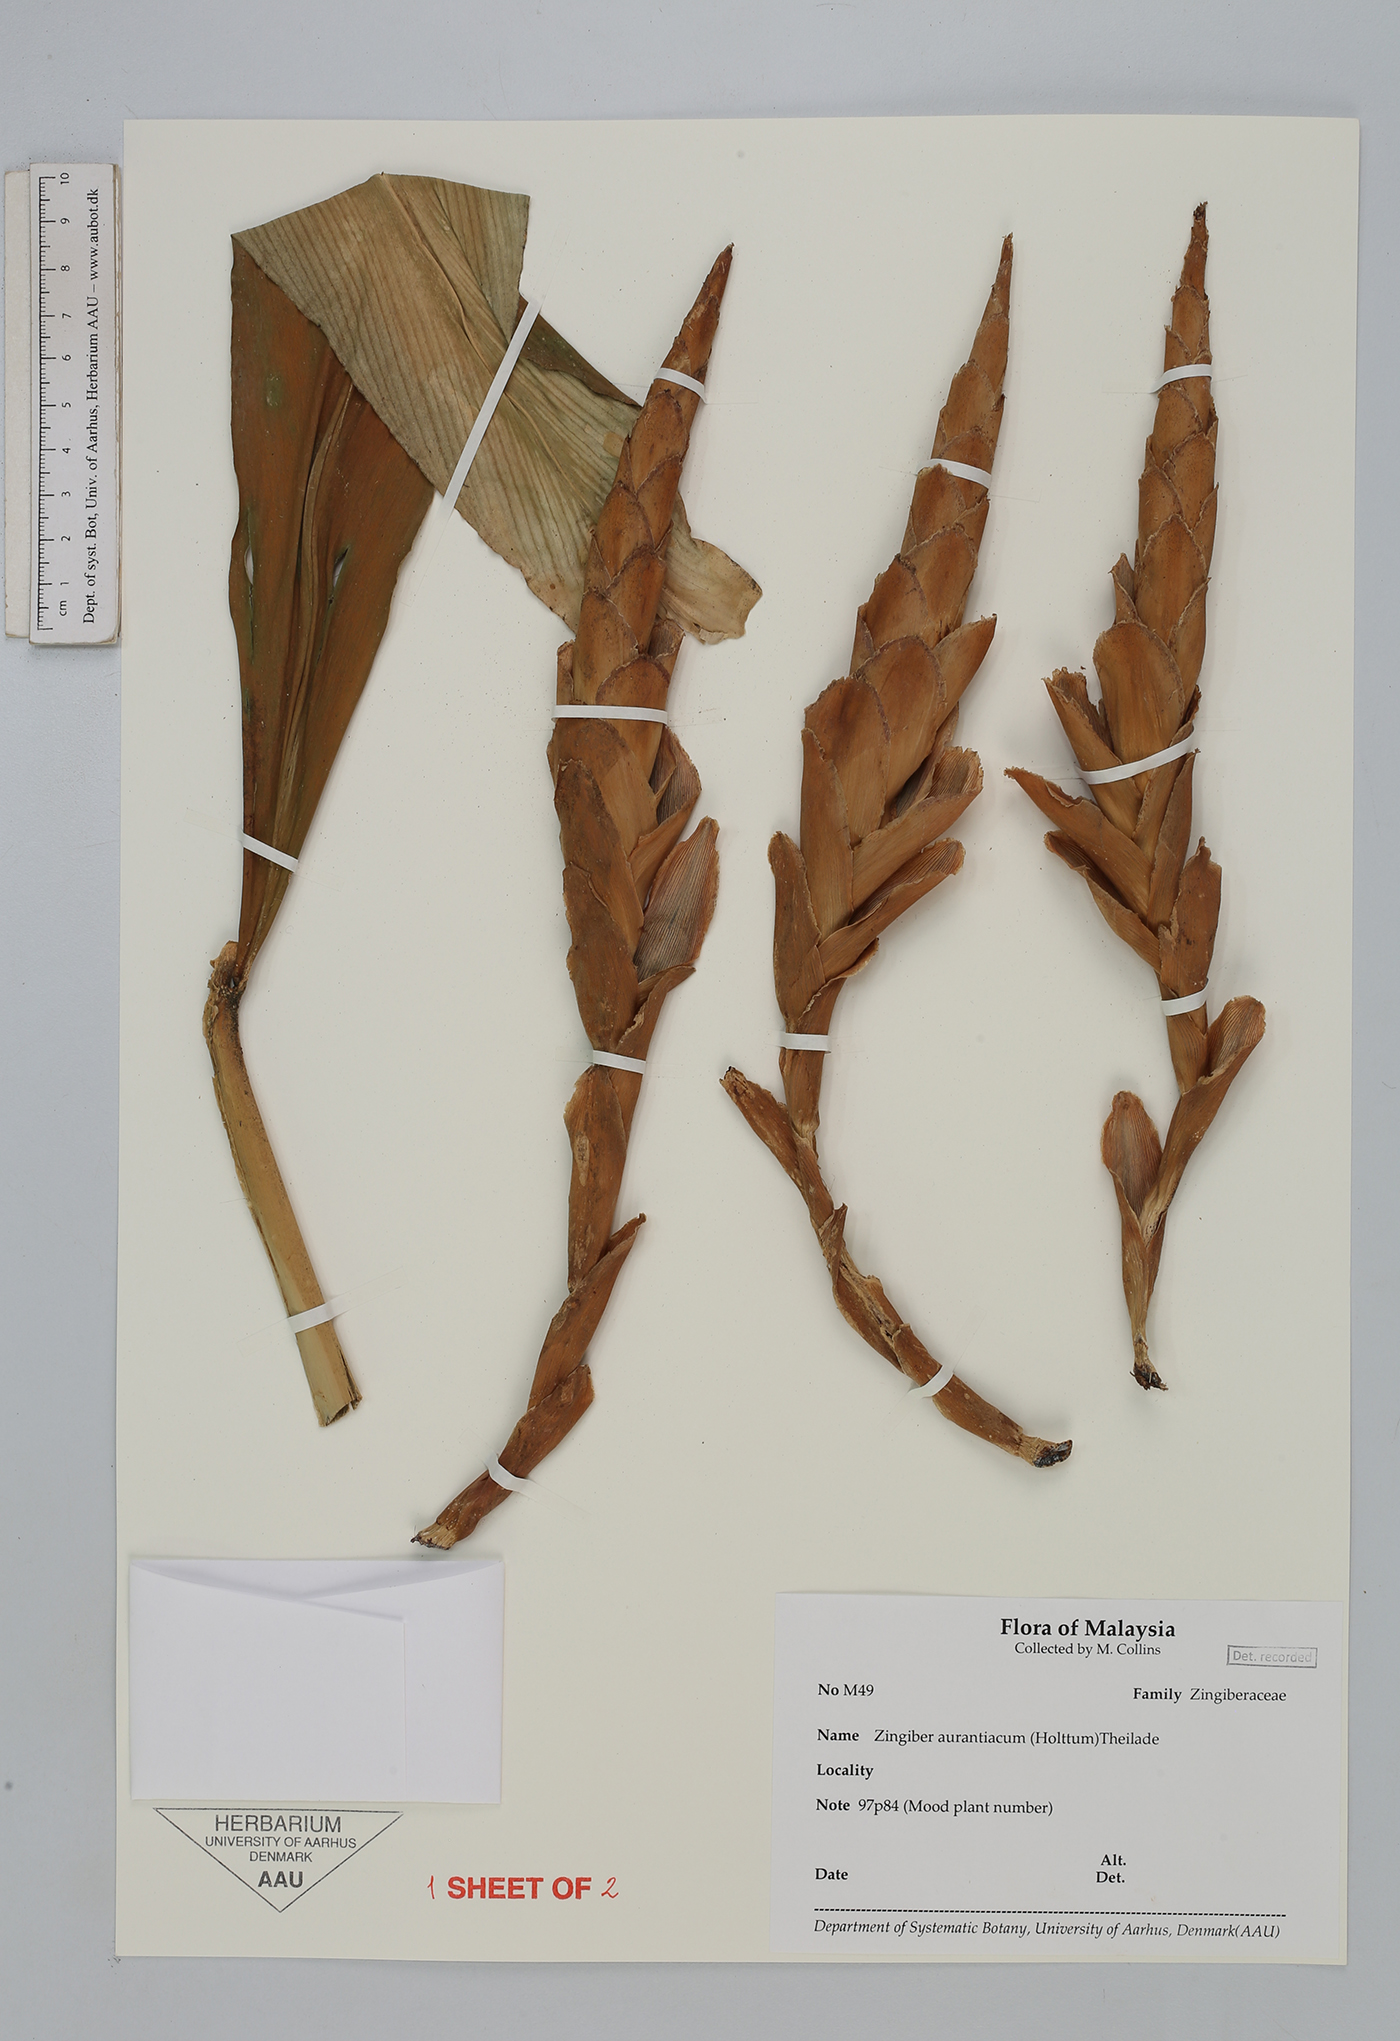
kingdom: Plantae
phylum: Tracheophyta
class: Liliopsida
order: Zingiberales
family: Zingiberaceae
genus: Zingiber
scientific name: Zingiber aurantiacum
